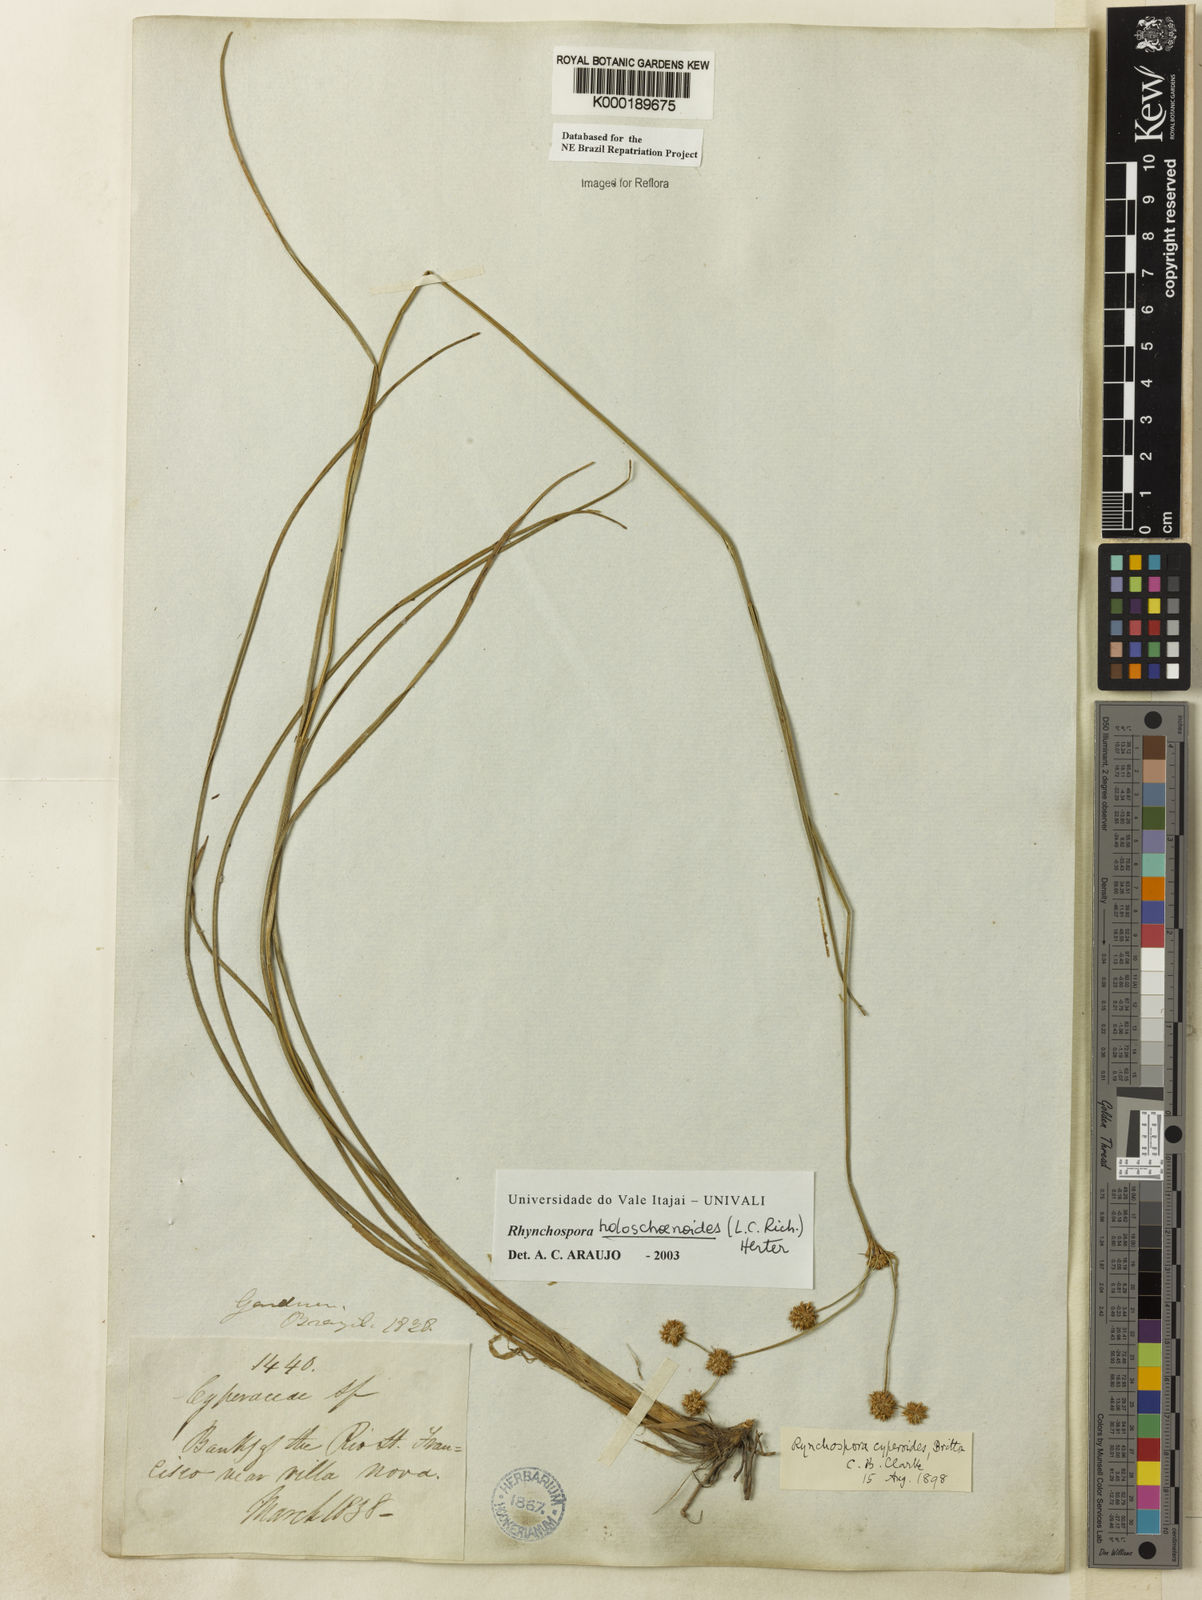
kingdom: Plantae
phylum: Tracheophyta
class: Liliopsida
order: Poales
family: Cyperaceae
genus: Rhynchospora
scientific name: Rhynchospora holoschoenoides
